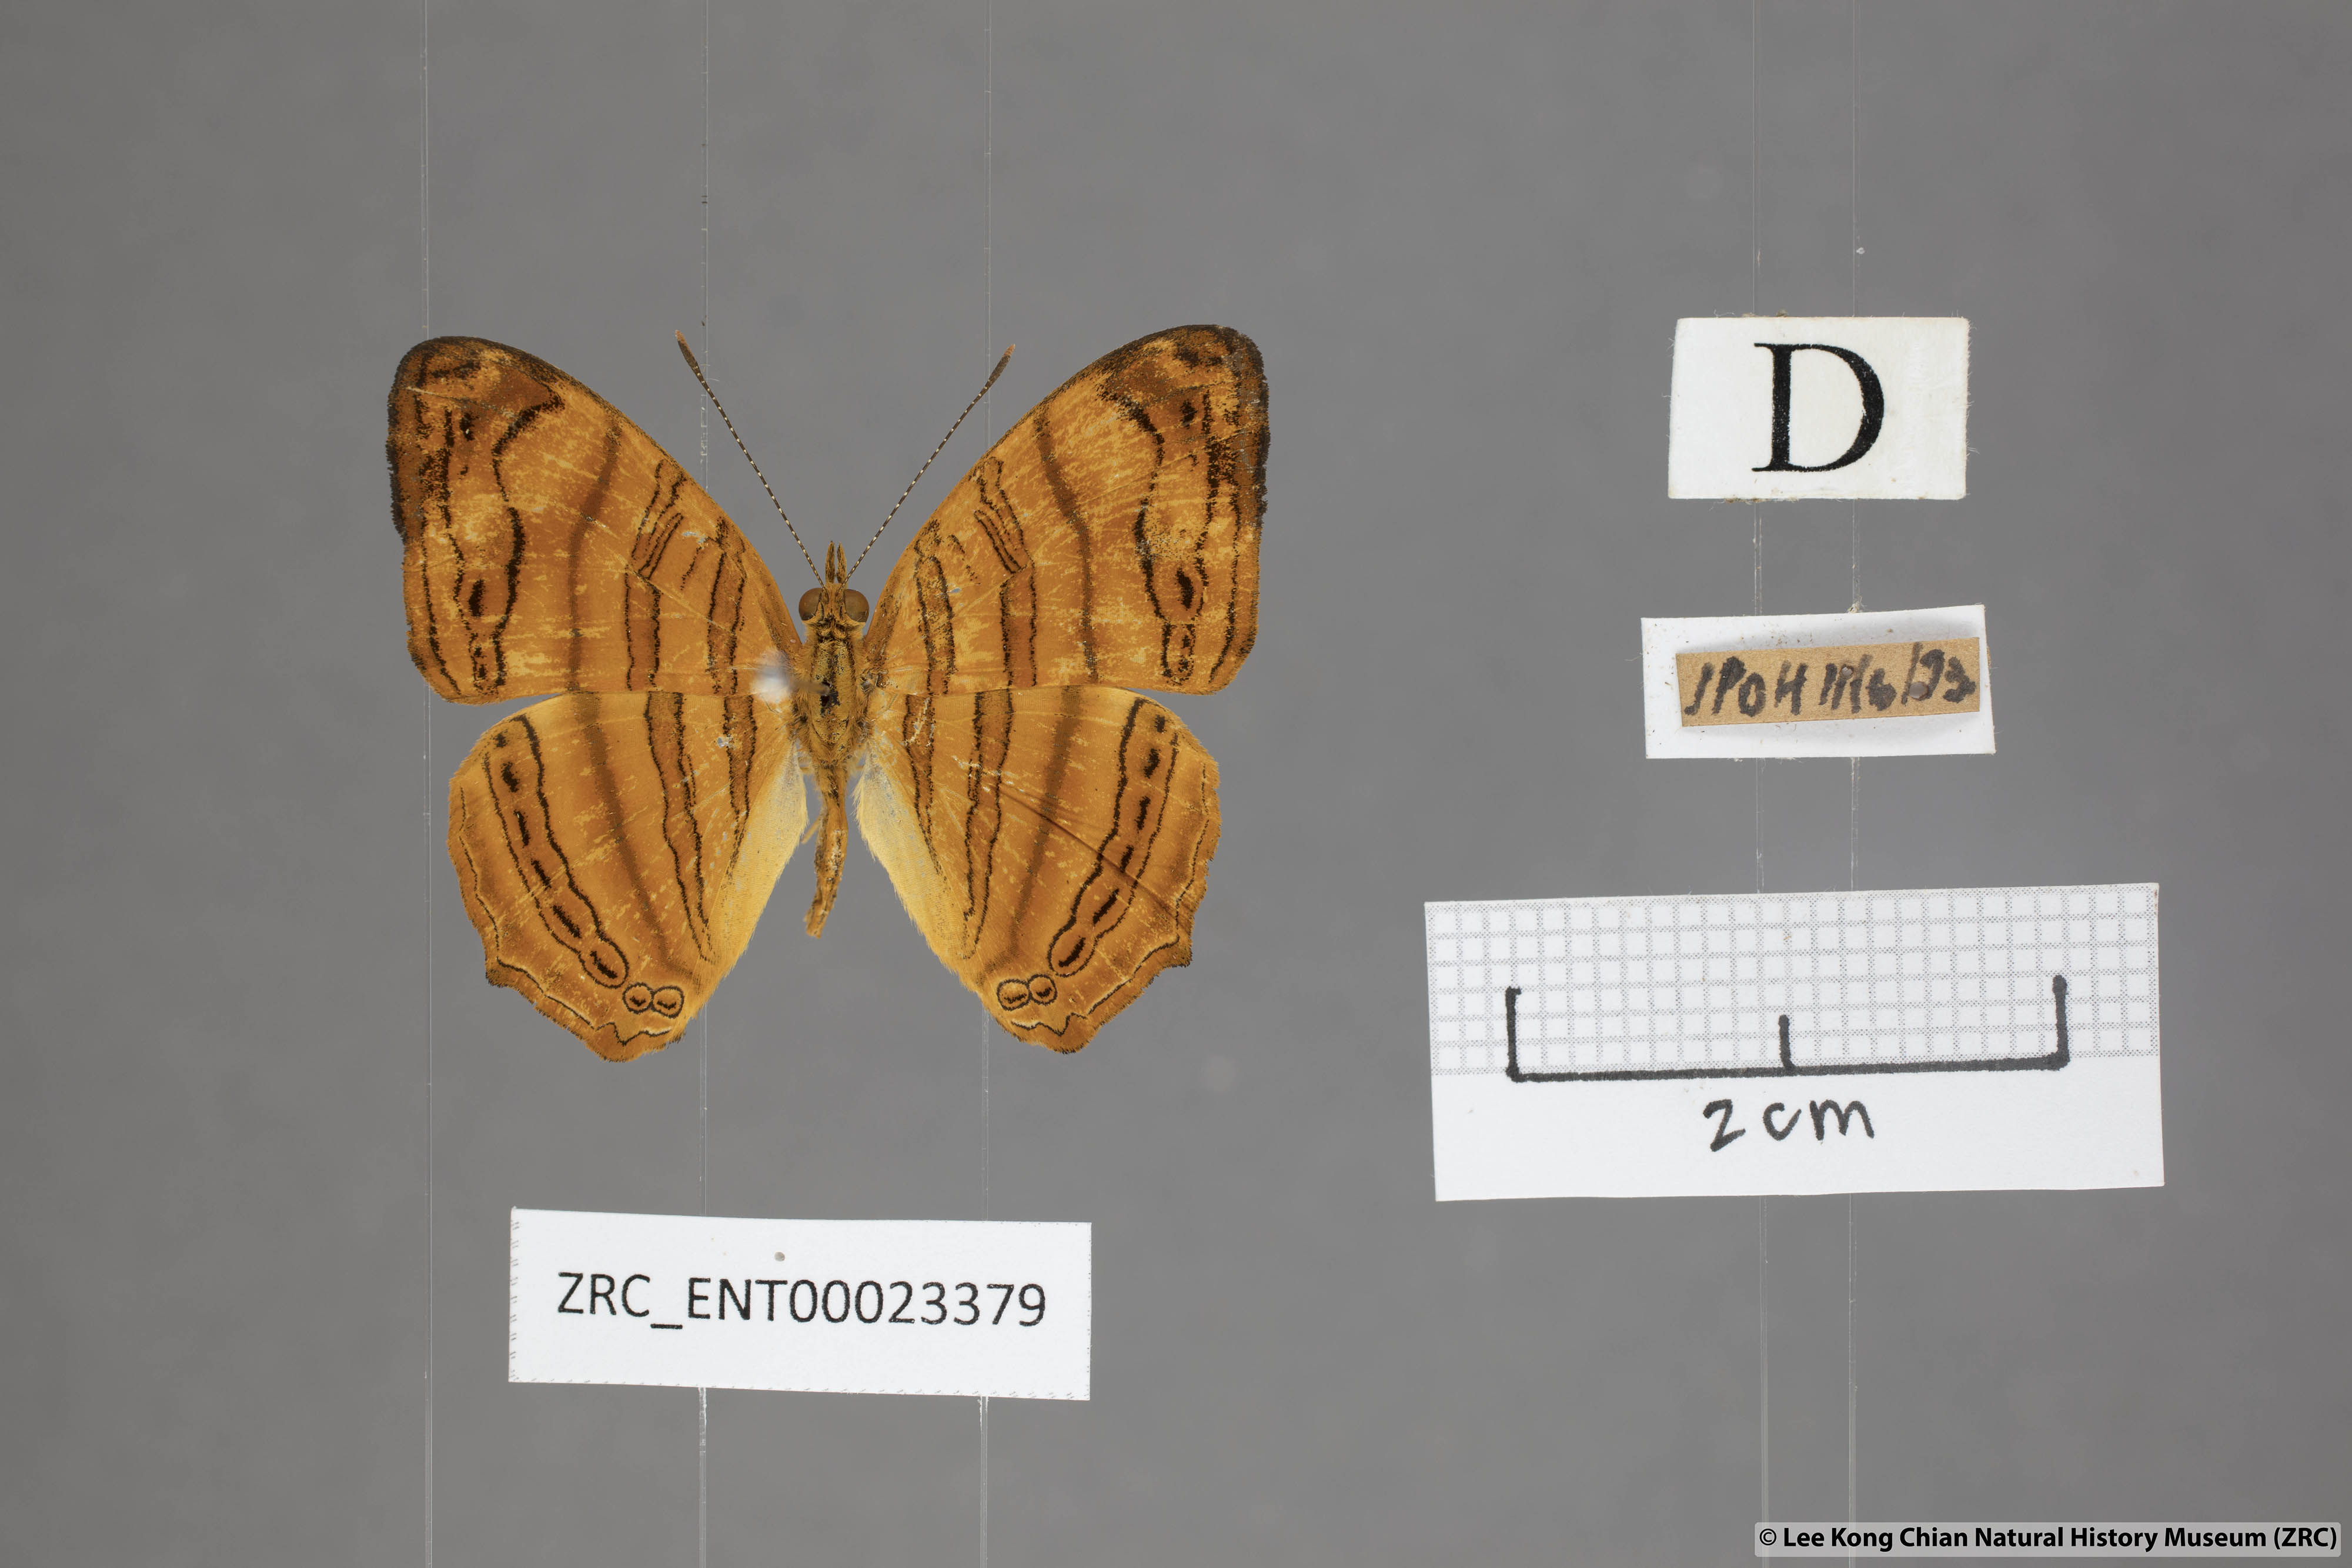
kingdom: Animalia
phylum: Arthropoda
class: Insecta
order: Lepidoptera
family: Nymphalidae
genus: Chersonesia
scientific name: Chersonesia rahria
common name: Wavy maplet
